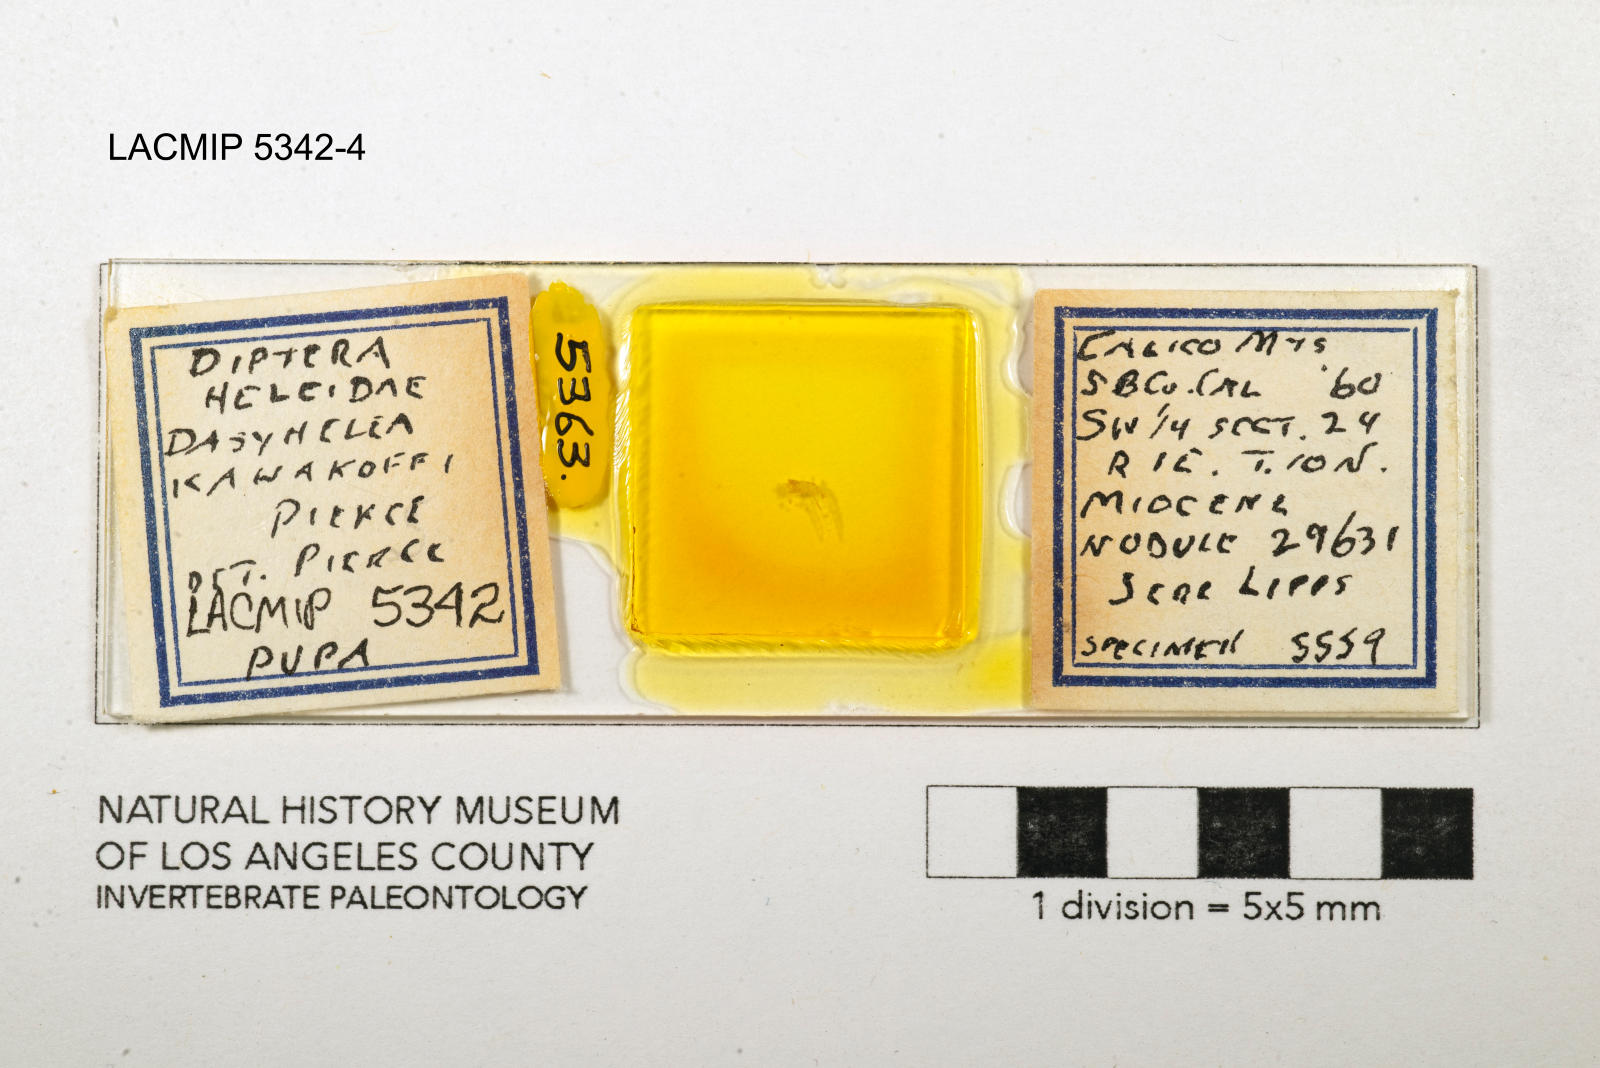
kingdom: Animalia
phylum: Arthropoda
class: Insecta
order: Diptera
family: Ceratopogonidae
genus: Dasyhelea
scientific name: Dasyhelea kanakoffi
